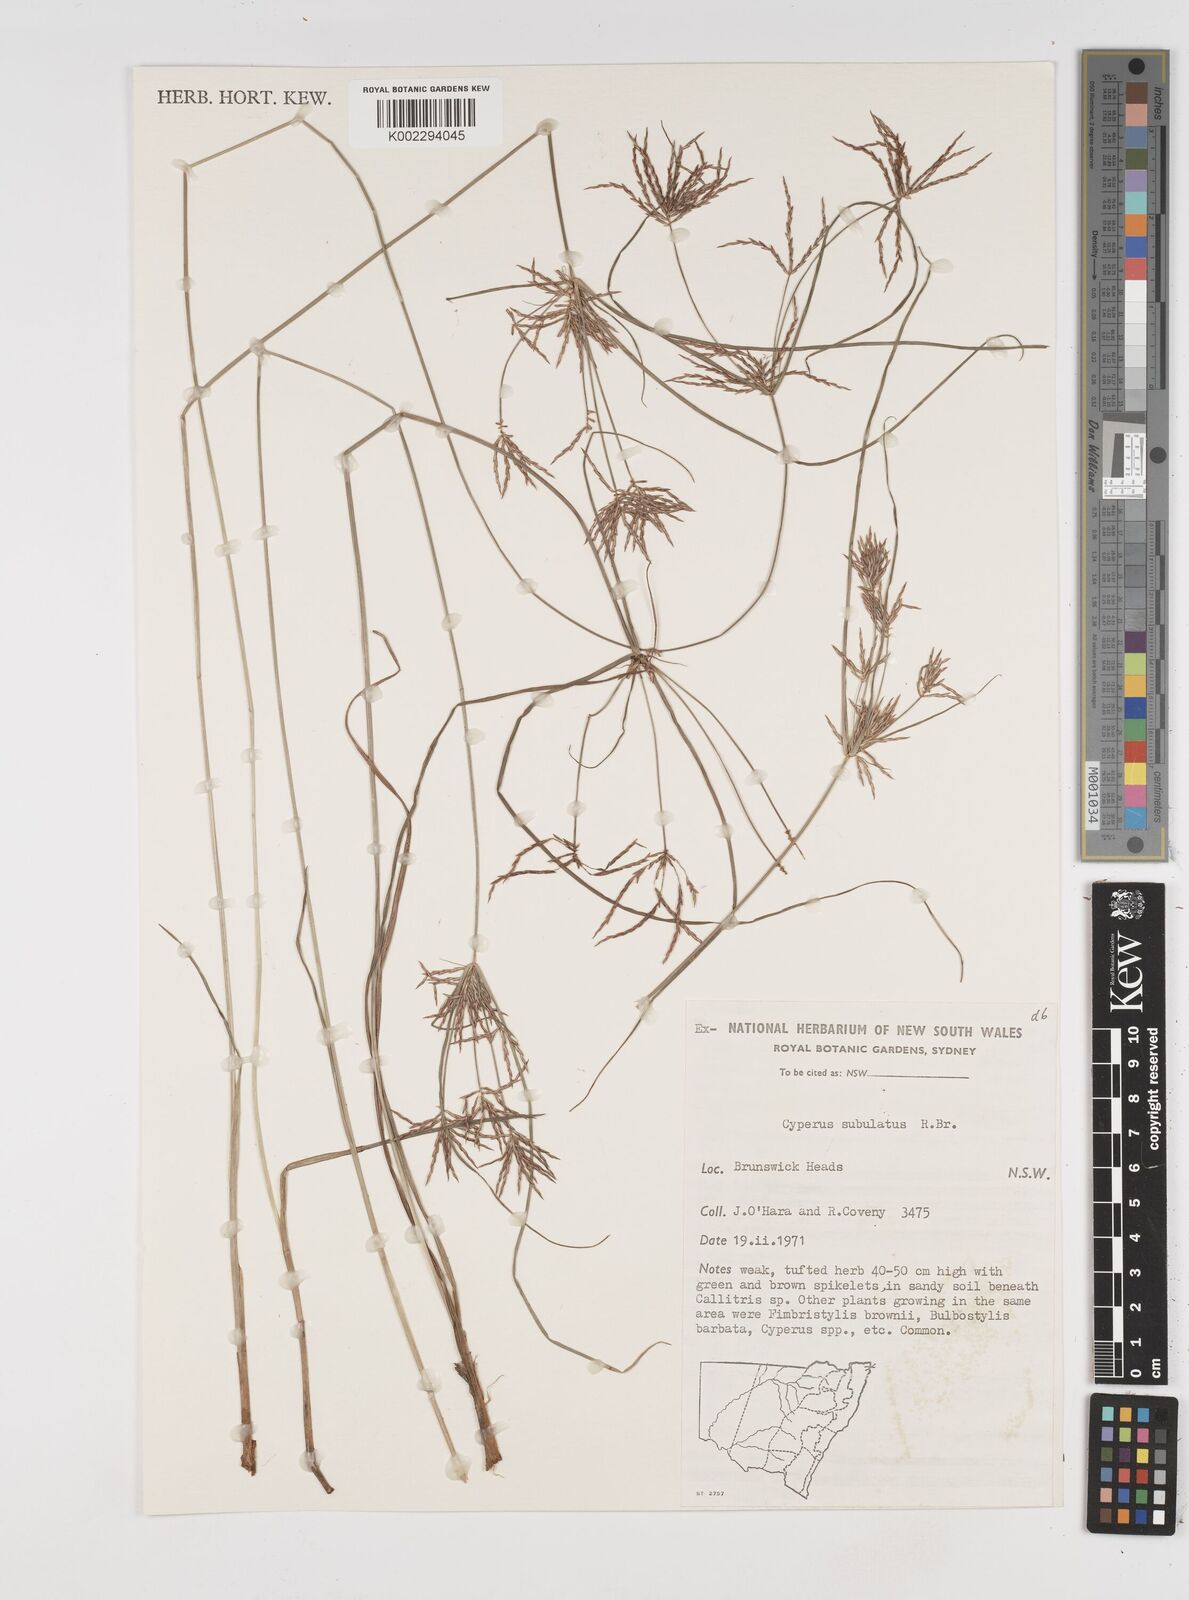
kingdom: Plantae
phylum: Tracheophyta
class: Liliopsida
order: Poales
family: Cyperaceae
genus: Cyperus
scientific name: Cyperus subulatus
